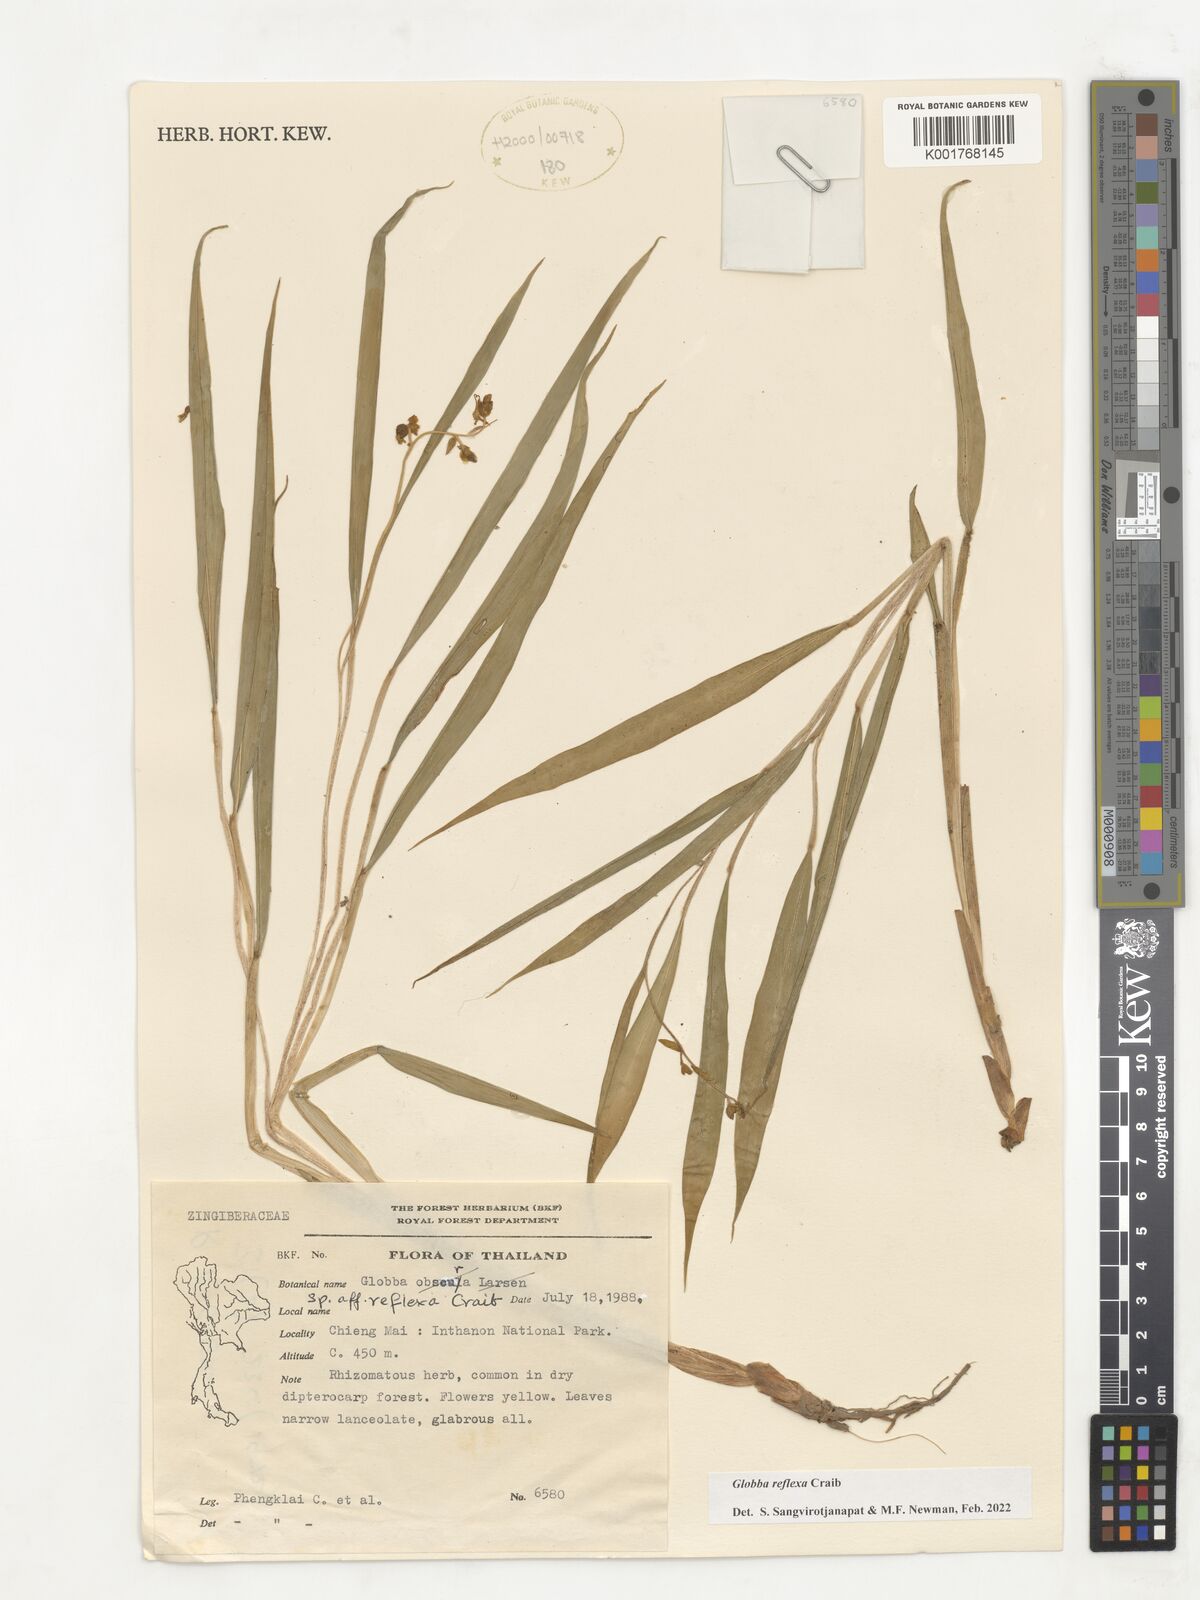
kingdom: Plantae
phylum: Tracheophyta
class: Liliopsida
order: Zingiberales
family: Zingiberaceae
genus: Globba
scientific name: Globba reflexa
